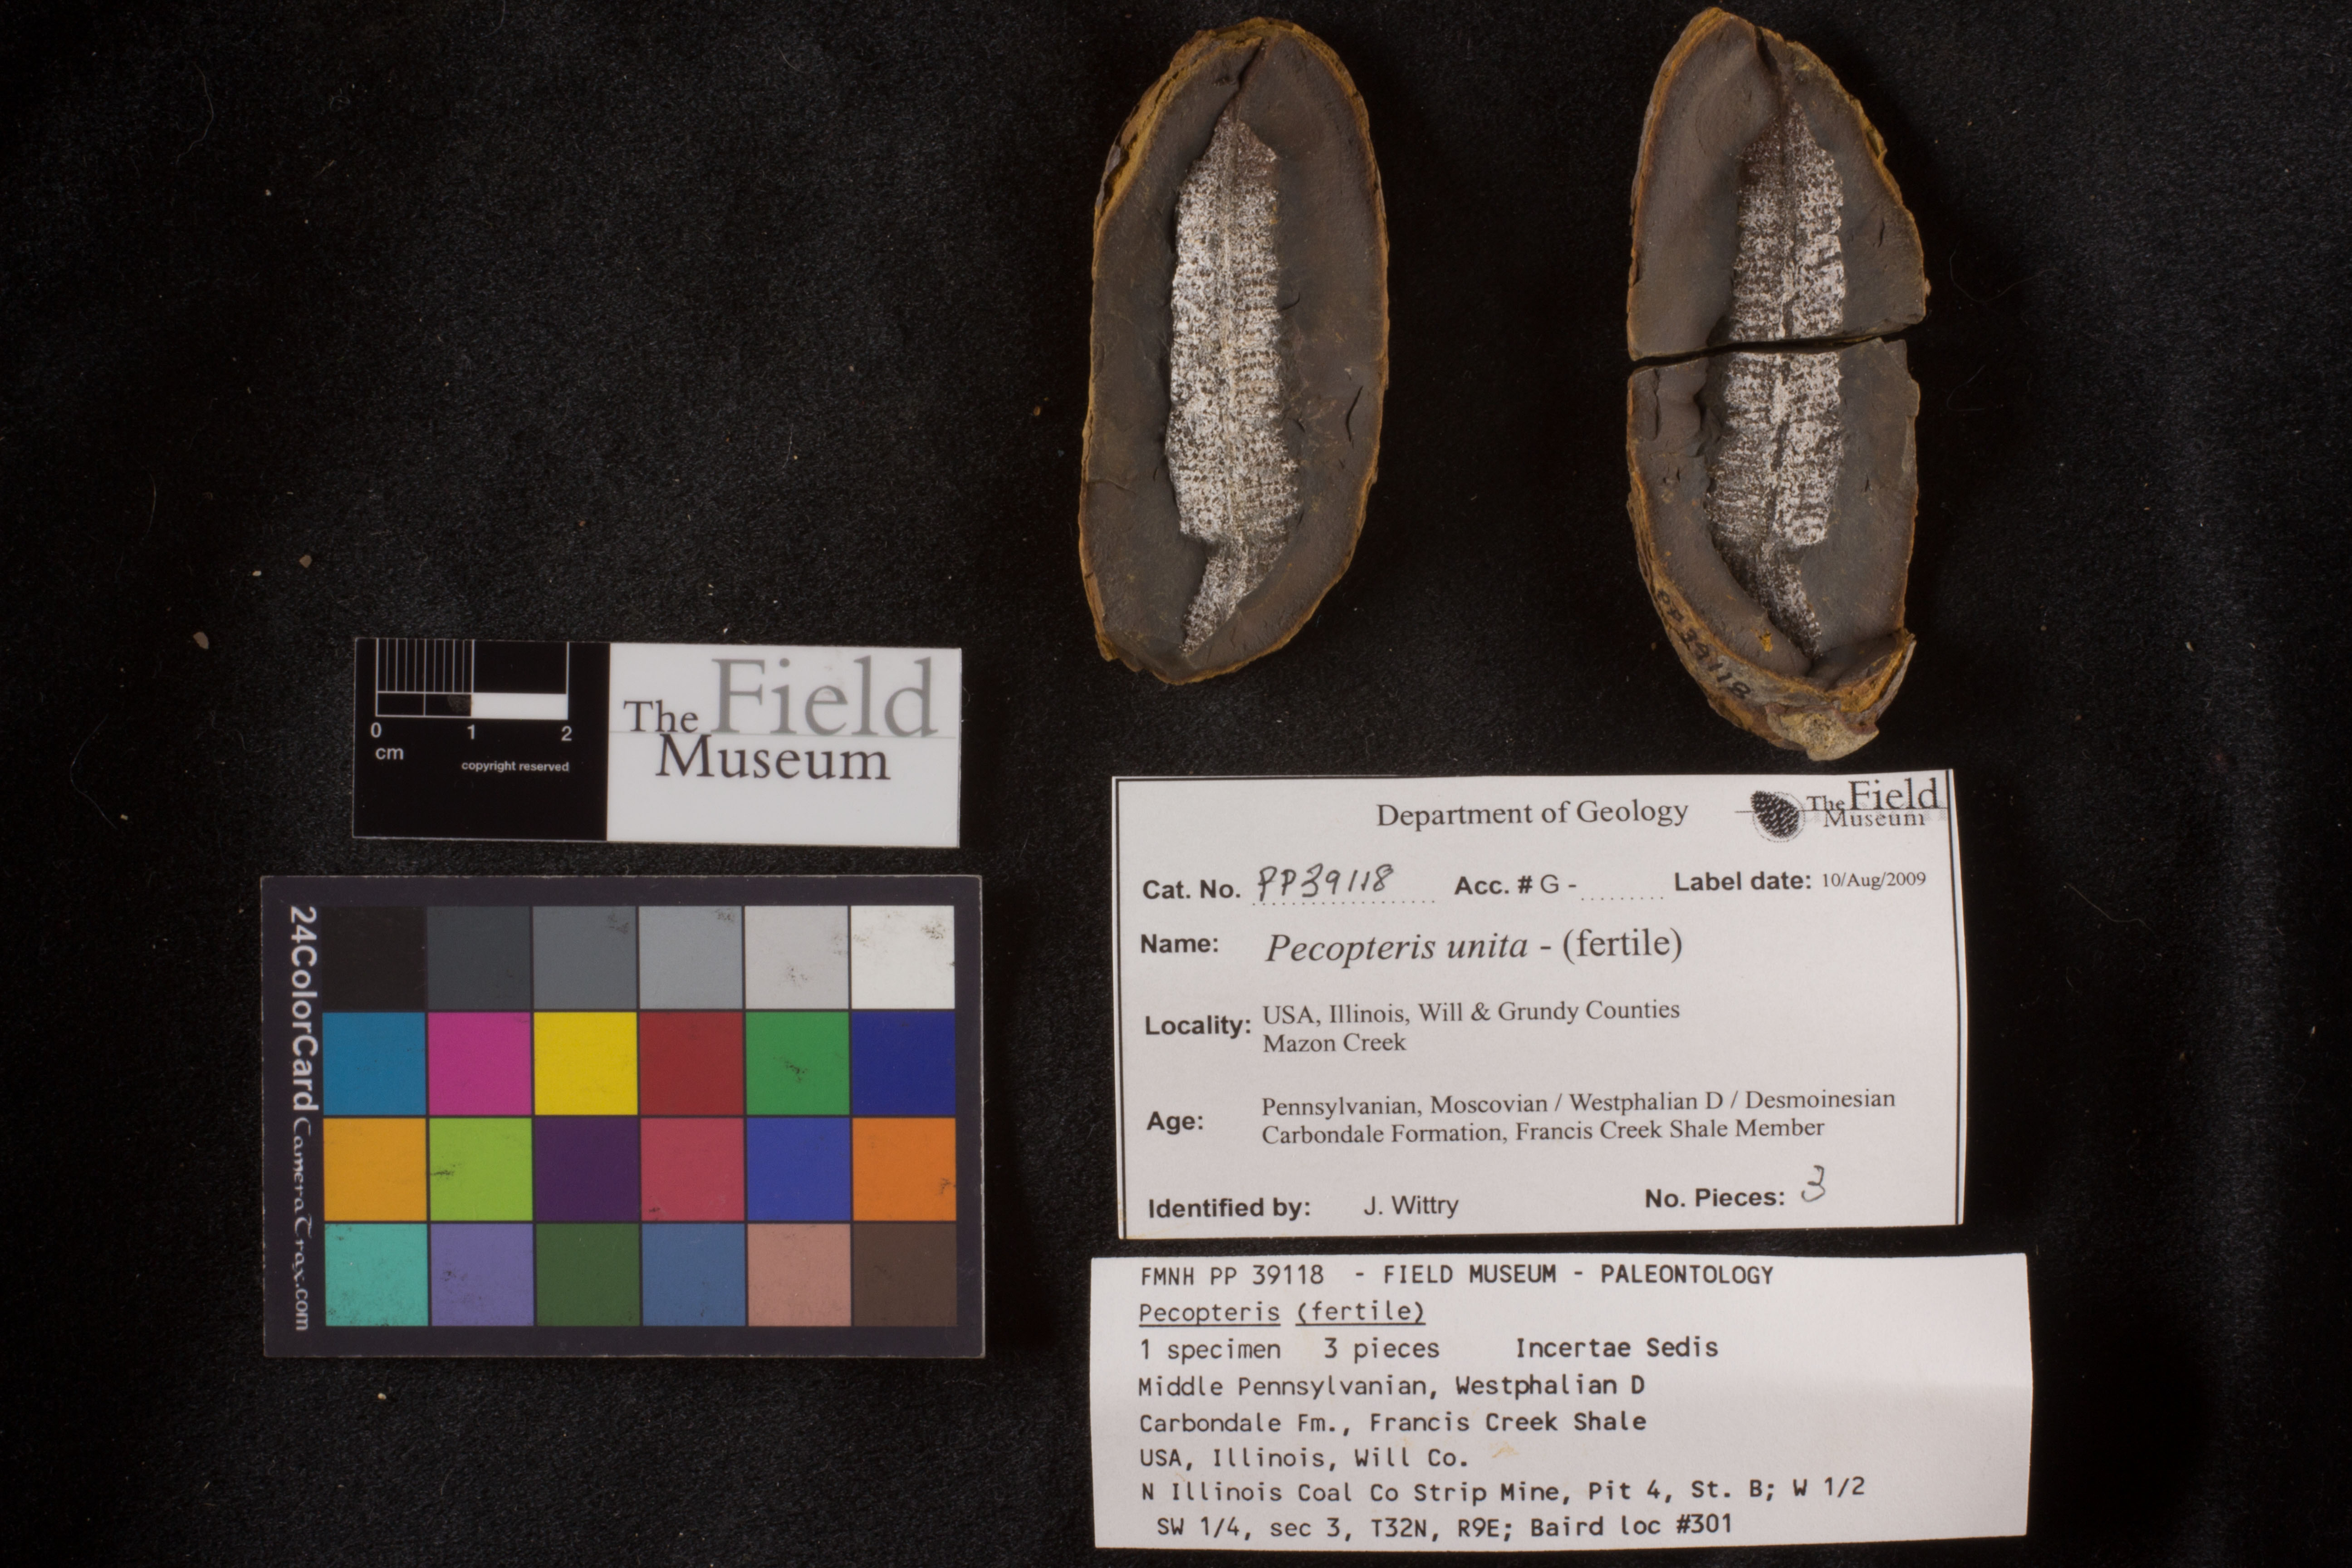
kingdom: Plantae
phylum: Tracheophyta
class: Polypodiopsida
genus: Diplazites
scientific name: Diplazites
